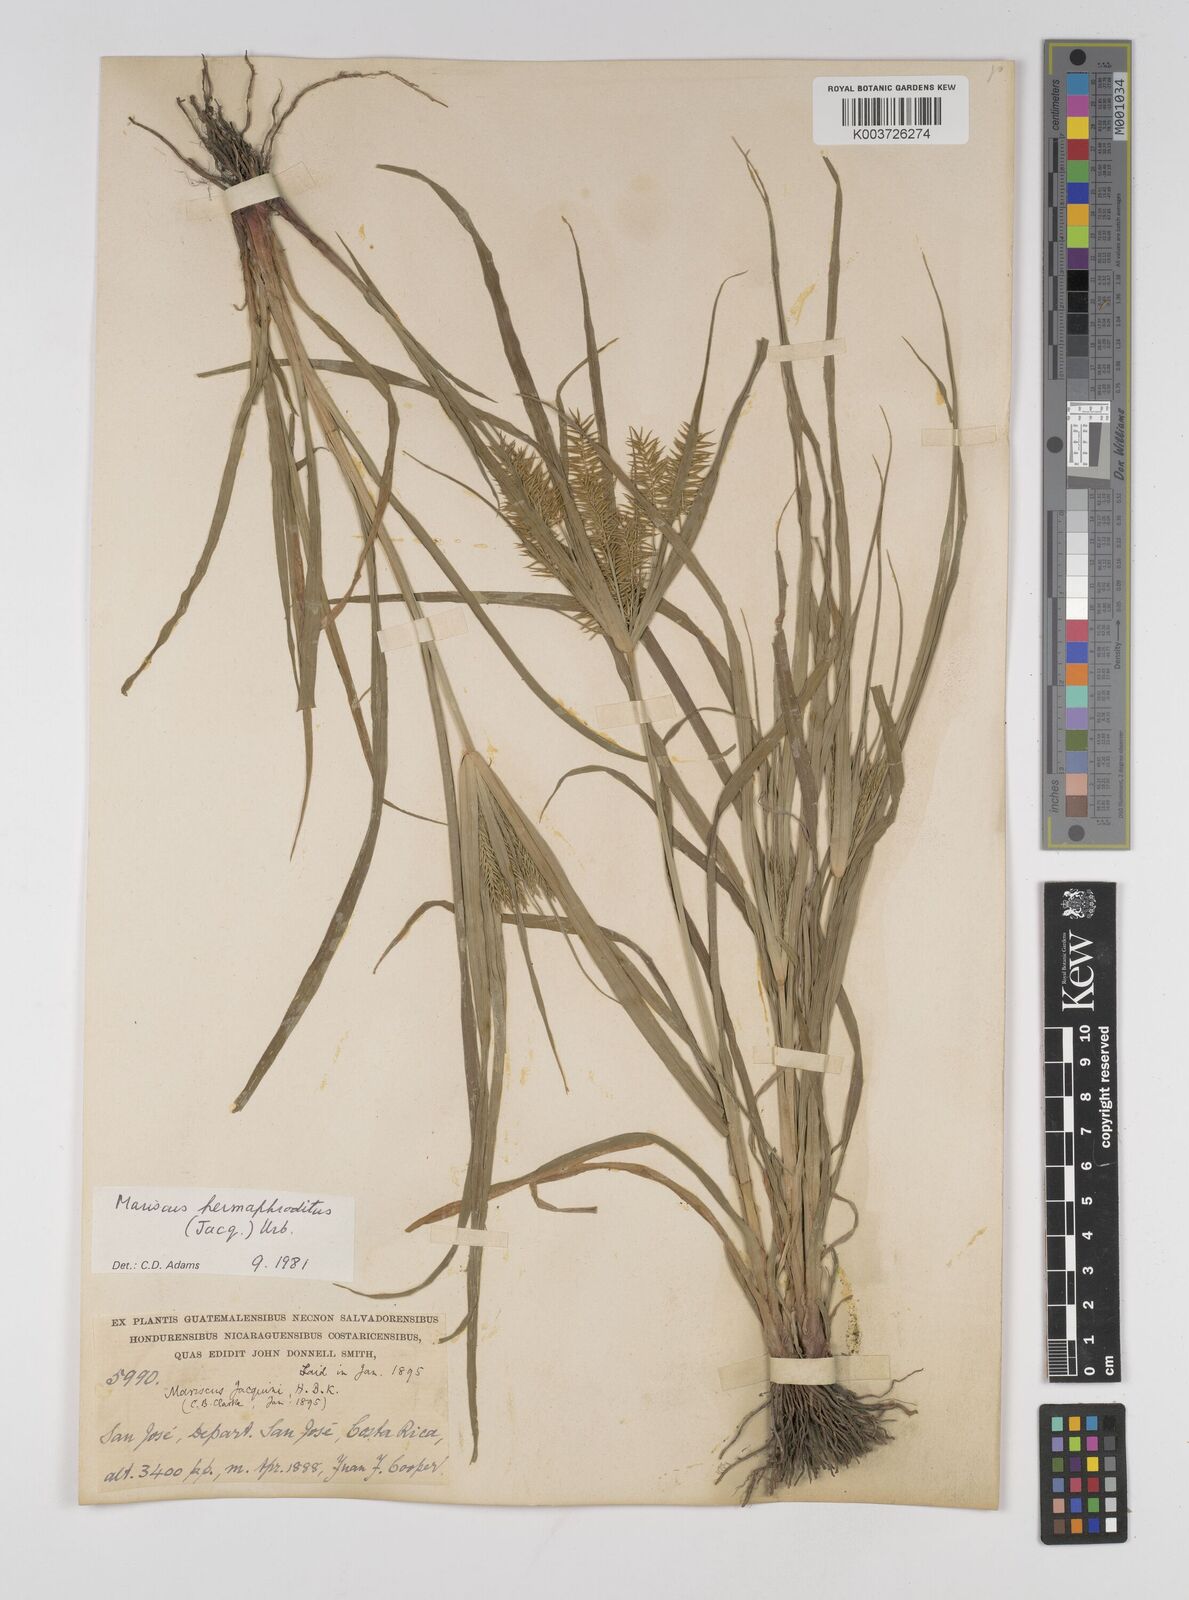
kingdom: Plantae
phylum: Tracheophyta
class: Liliopsida
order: Poales
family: Cyperaceae
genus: Cyperus
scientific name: Cyperus hermaphroditus
